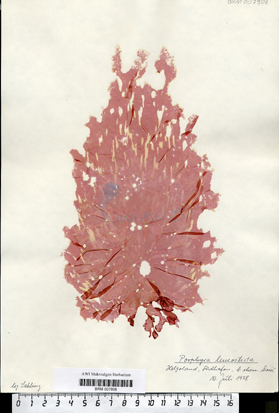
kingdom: Plantae
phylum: Rhodophyta
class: Bangiophyceae
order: Bangiales
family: Bangiaceae
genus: Neopyropia
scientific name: Neopyropia spec
